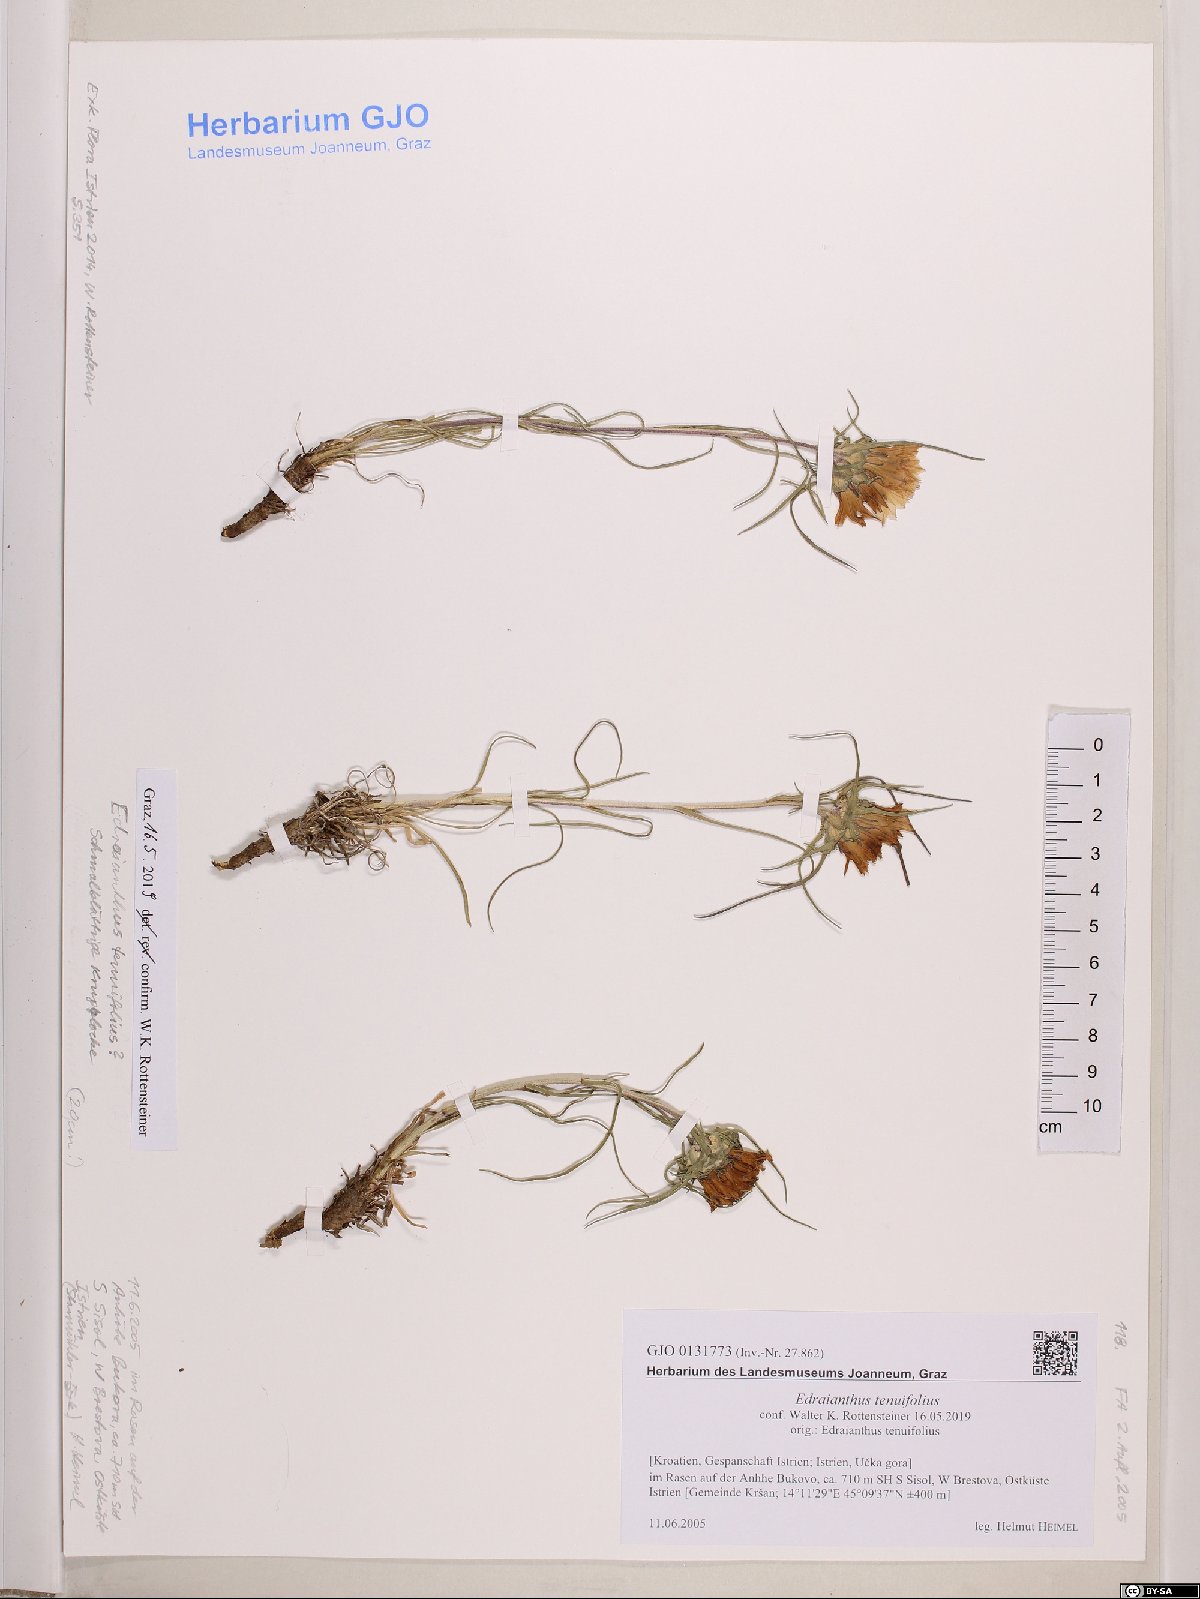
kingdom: Plantae
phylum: Tracheophyta
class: Magnoliopsida
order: Asterales
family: Campanulaceae
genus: Edraianthus
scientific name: Edraianthus tenuifolius
